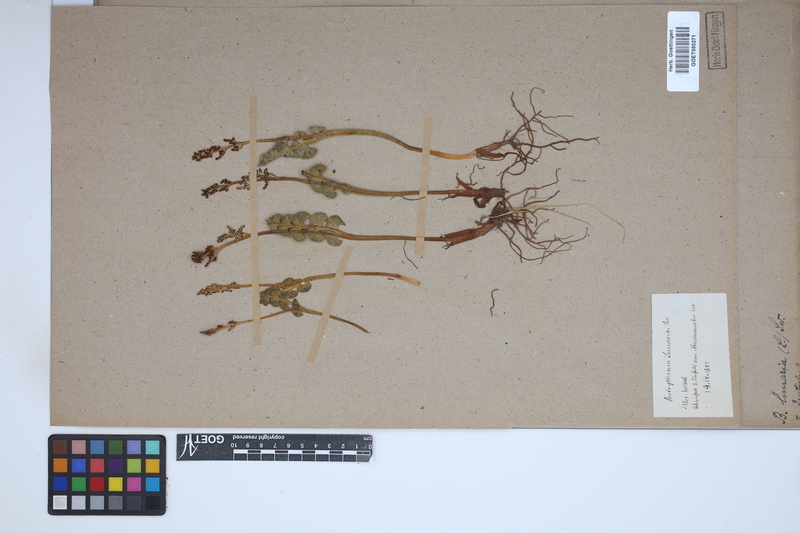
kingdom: Plantae
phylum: Tracheophyta
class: Polypodiopsida
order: Ophioglossales
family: Ophioglossaceae
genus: Botrychium
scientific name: Botrychium lunaria
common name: Moonwort
